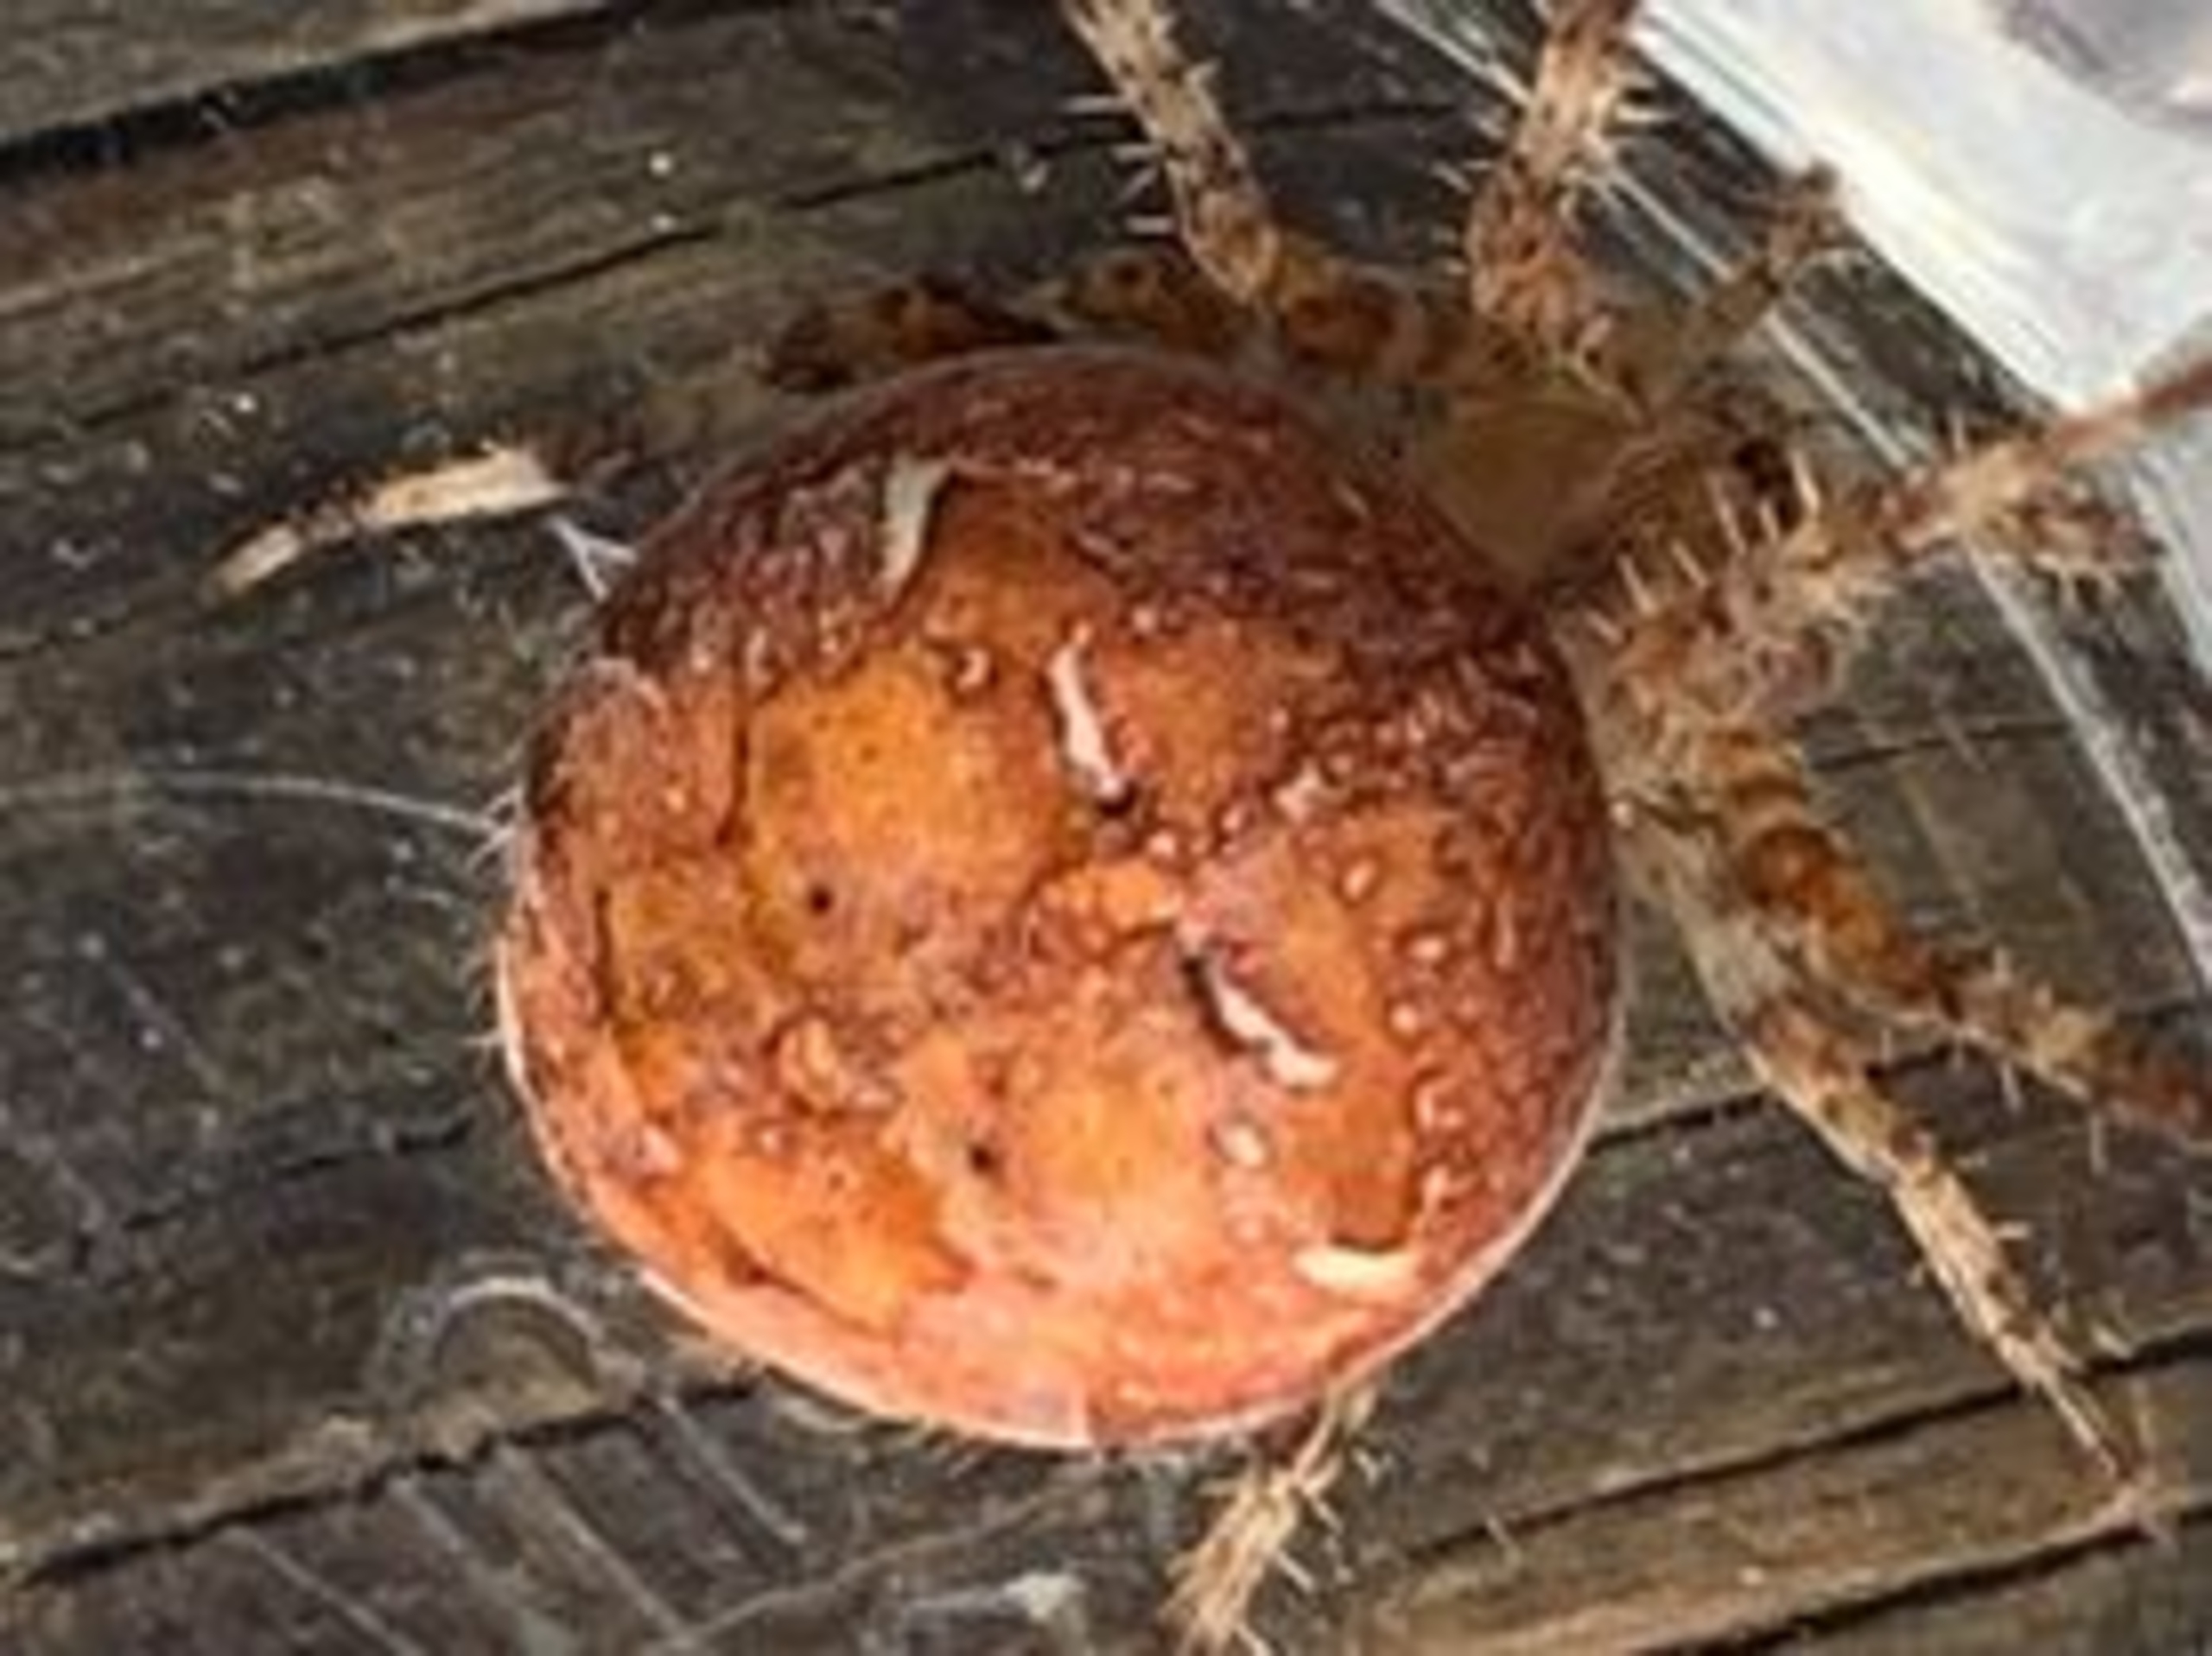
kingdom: Animalia
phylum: Arthropoda
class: Arachnida
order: Araneae
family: Araneidae
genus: Araneus
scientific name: Araneus diadematus
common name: Korsedderkop
